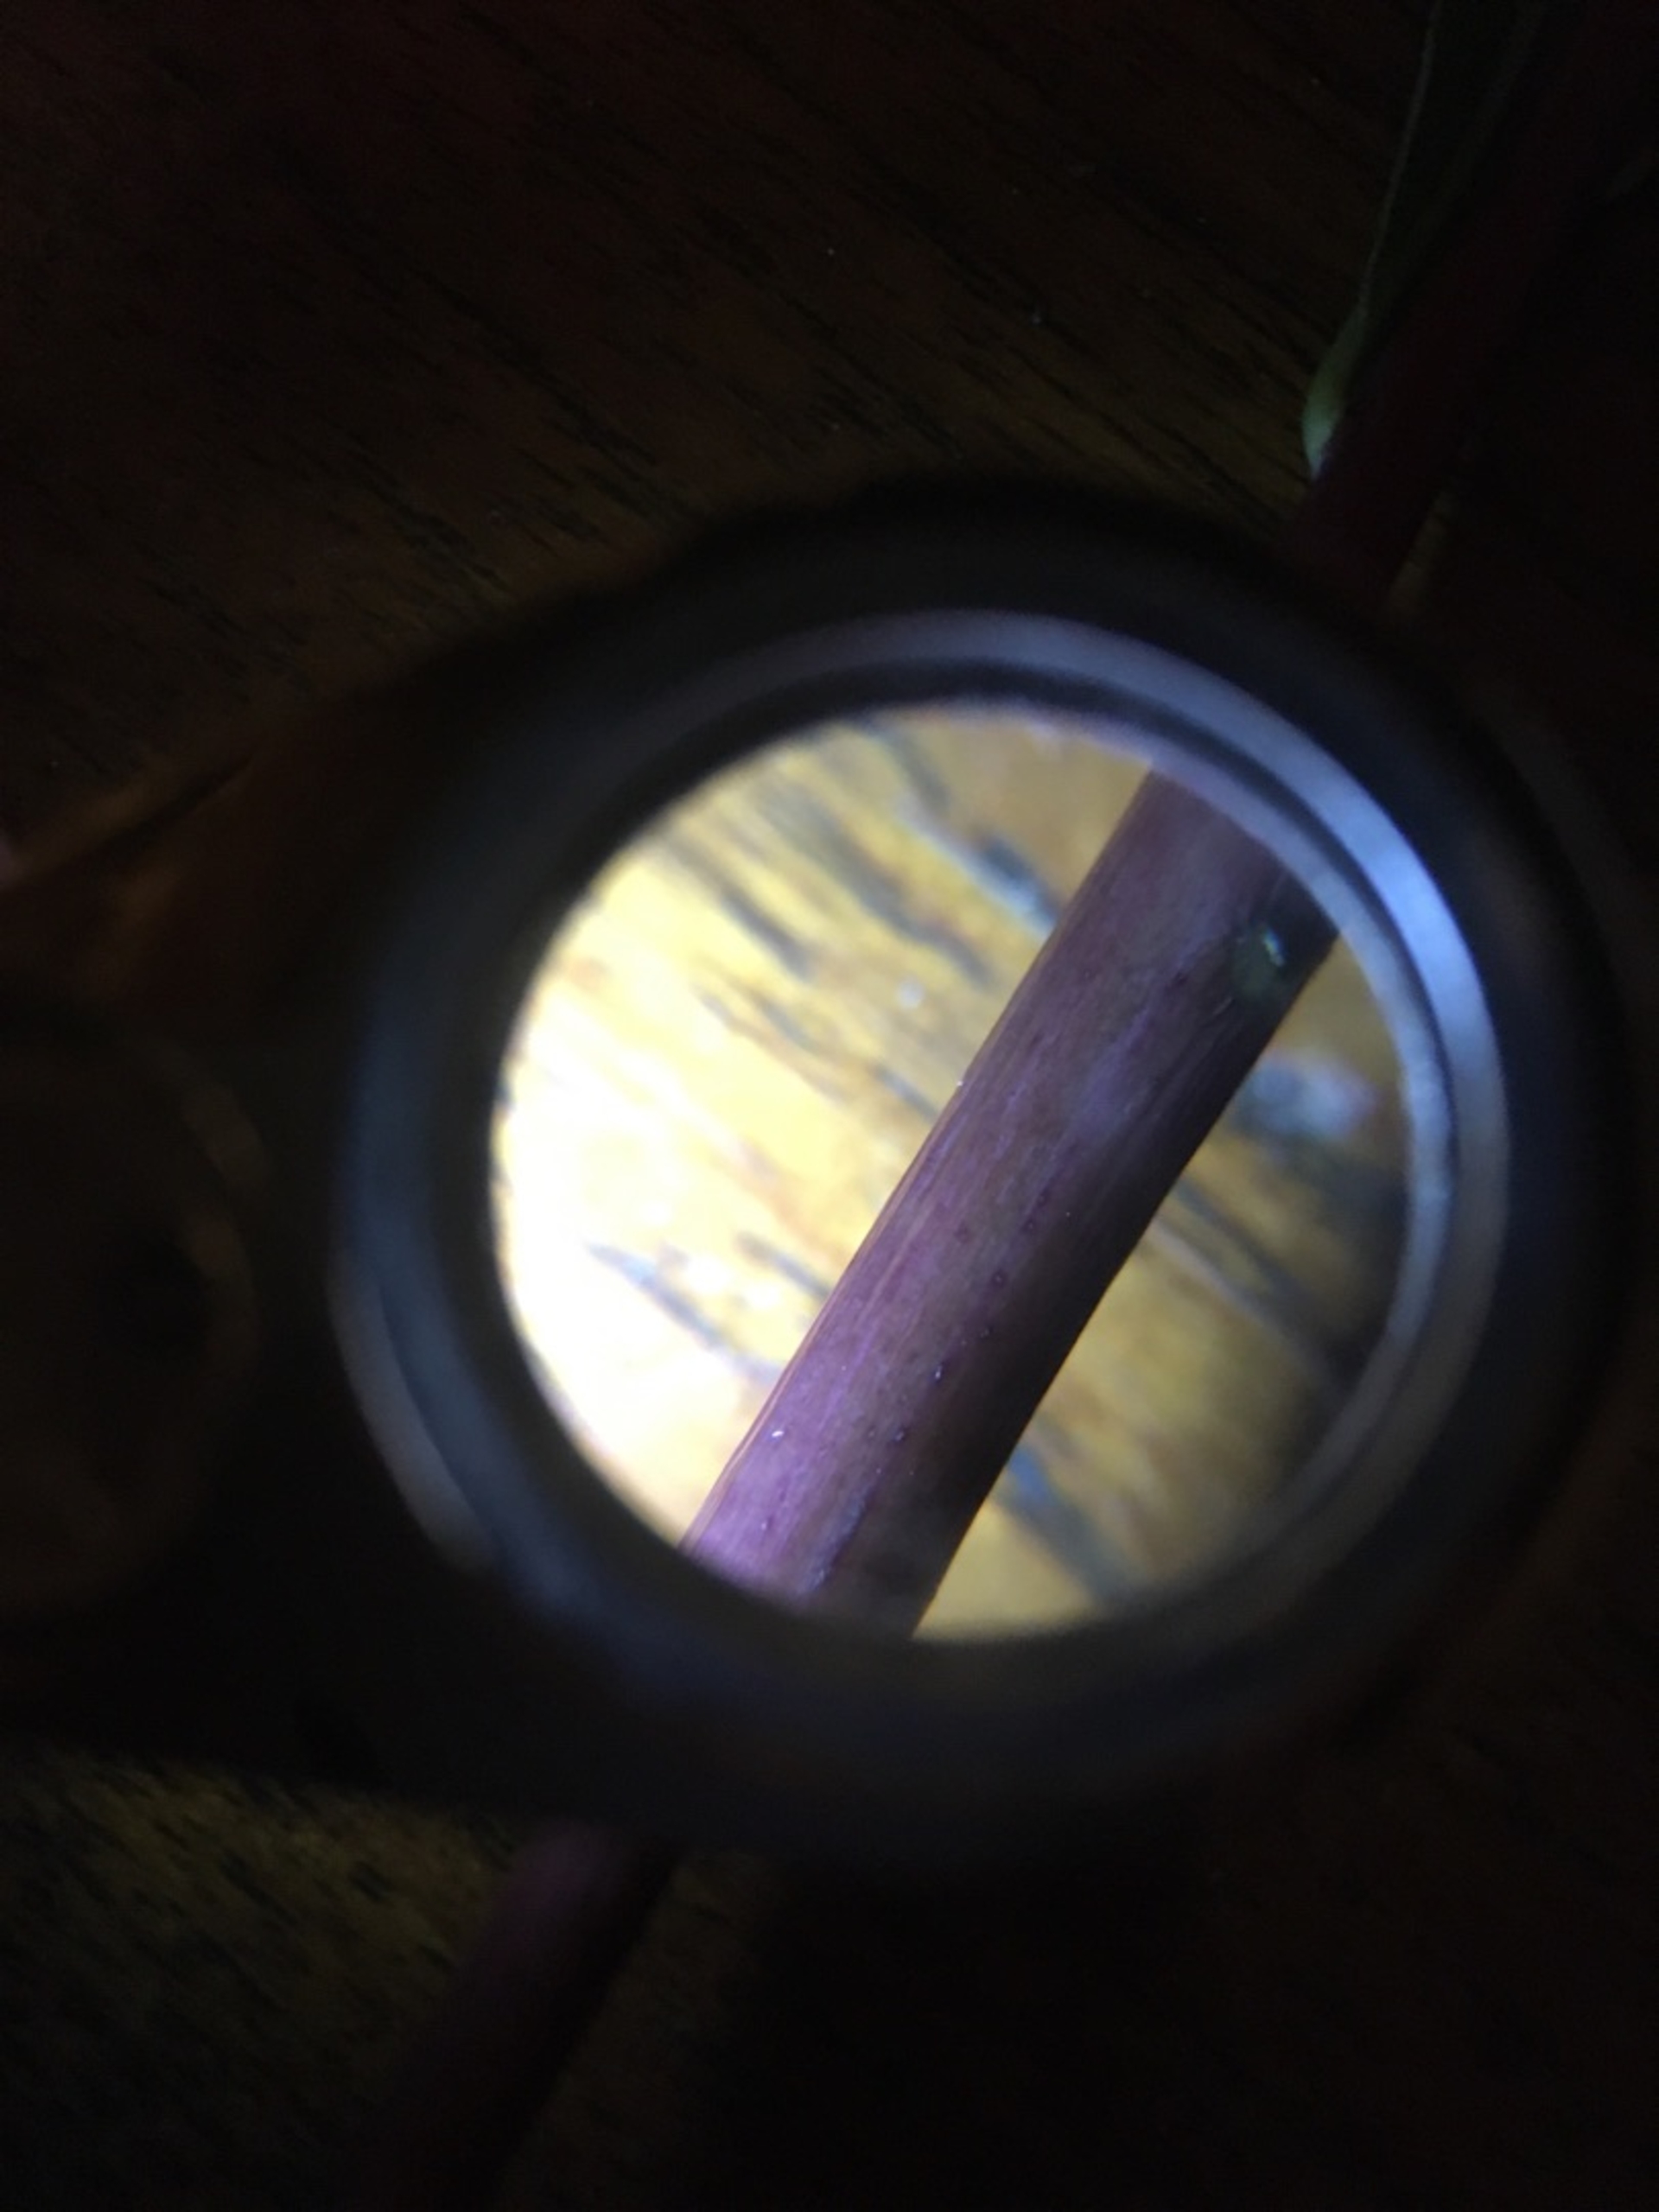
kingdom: Plantae
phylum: Tracheophyta
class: Magnoliopsida
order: Asterales
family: Asteraceae
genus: Solidago
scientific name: Solidago gigantea
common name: Sildig gyldenris
